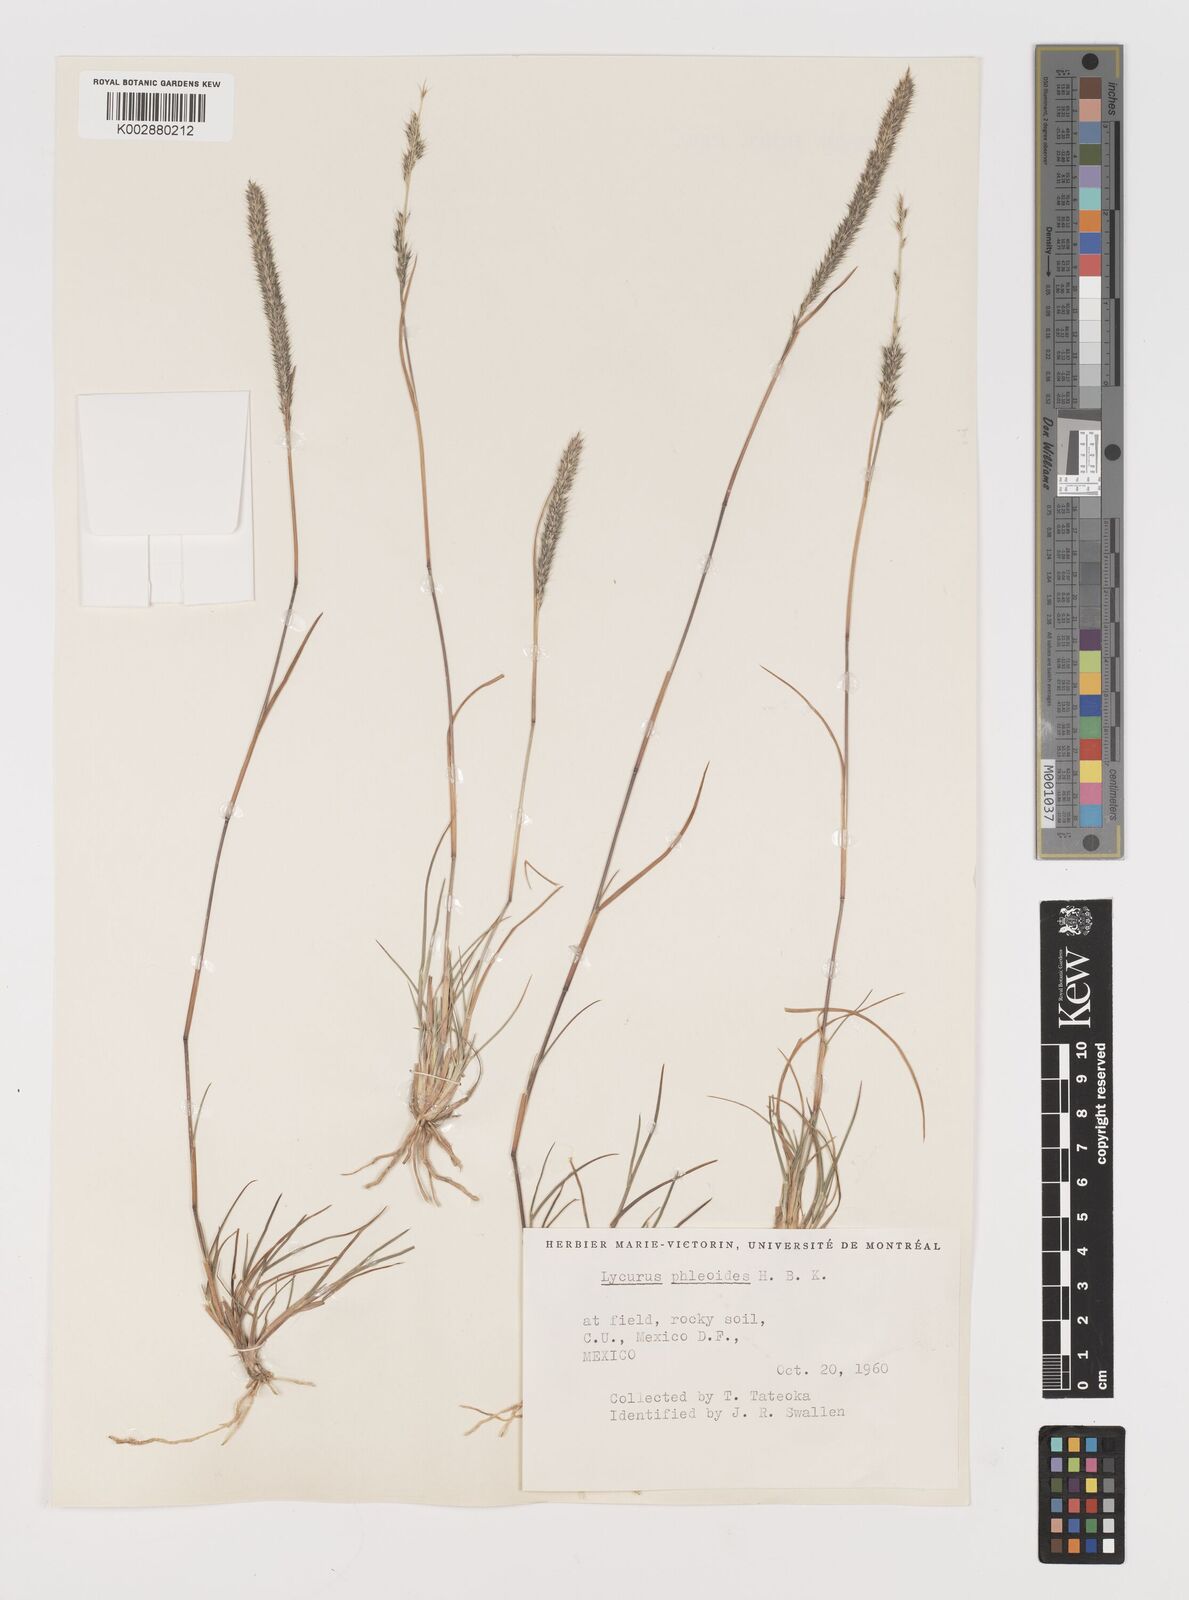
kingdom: Plantae
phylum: Tracheophyta
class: Liliopsida
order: Poales
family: Poaceae
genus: Muhlenbergia
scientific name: Muhlenbergia phleoides
